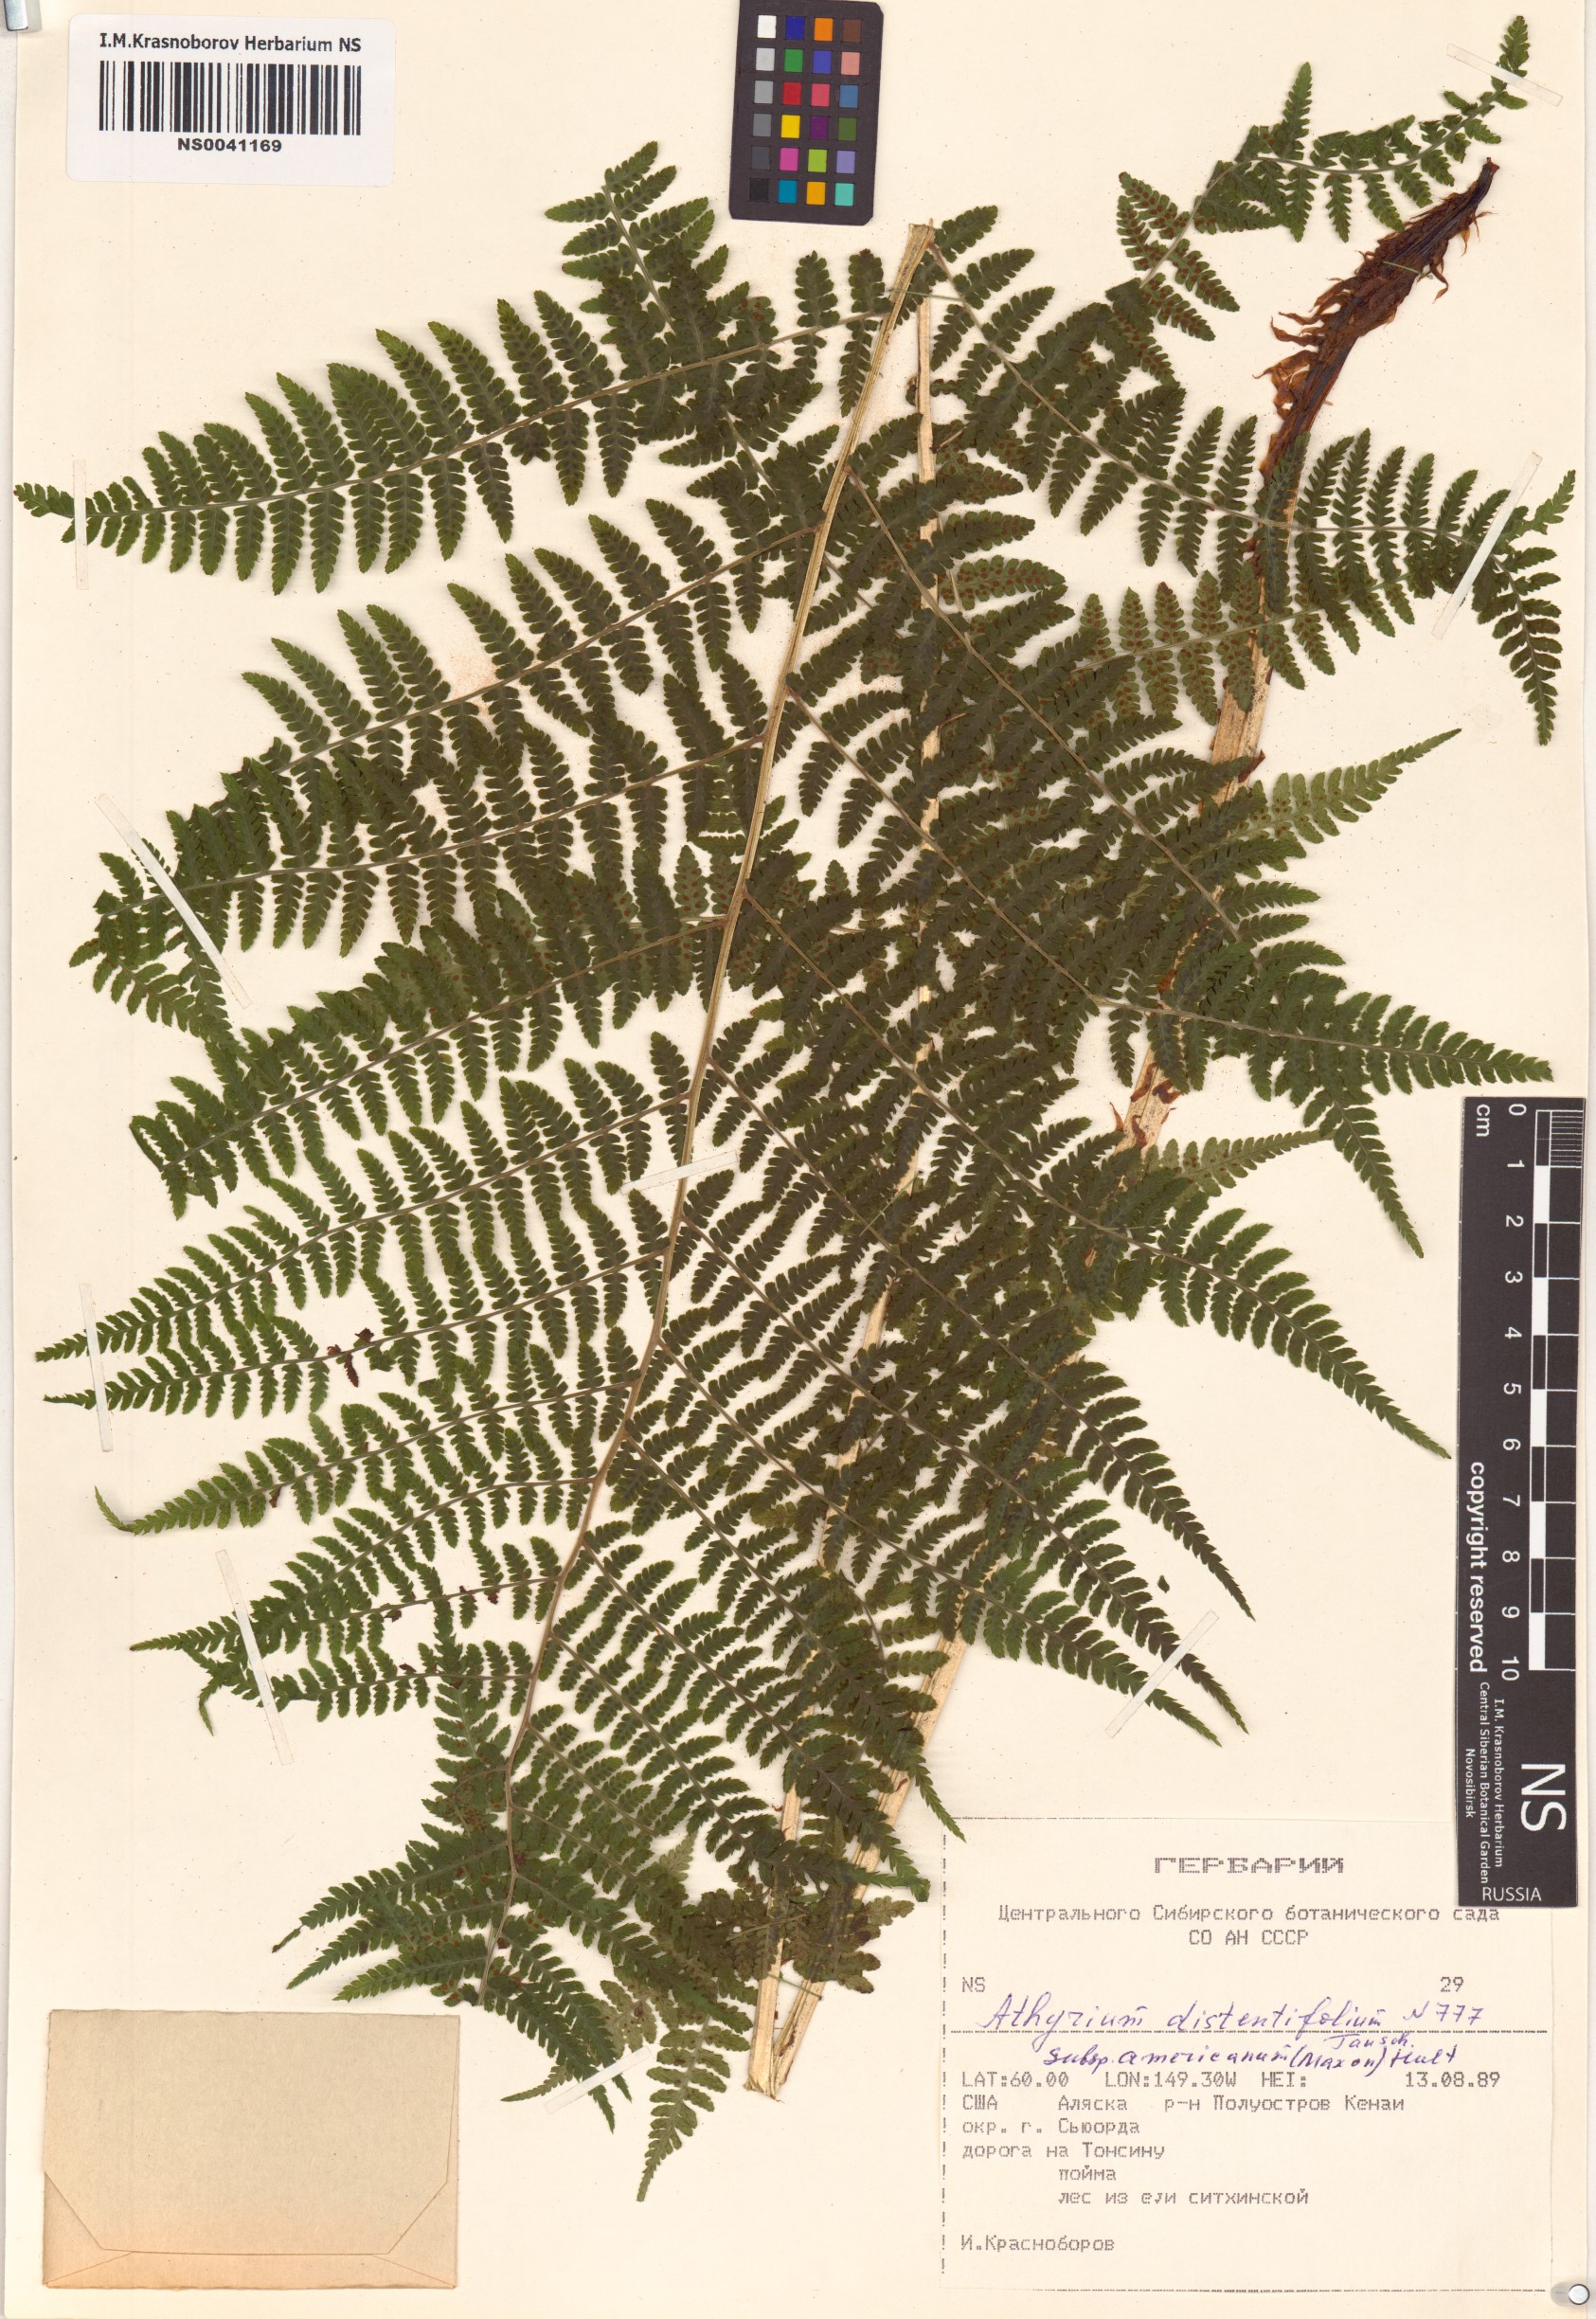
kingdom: Plantae
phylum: Tracheophyta
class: Polypodiopsida
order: Polypodiales
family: Athyriaceae
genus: Athyrium
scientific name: Athyrium americanum
